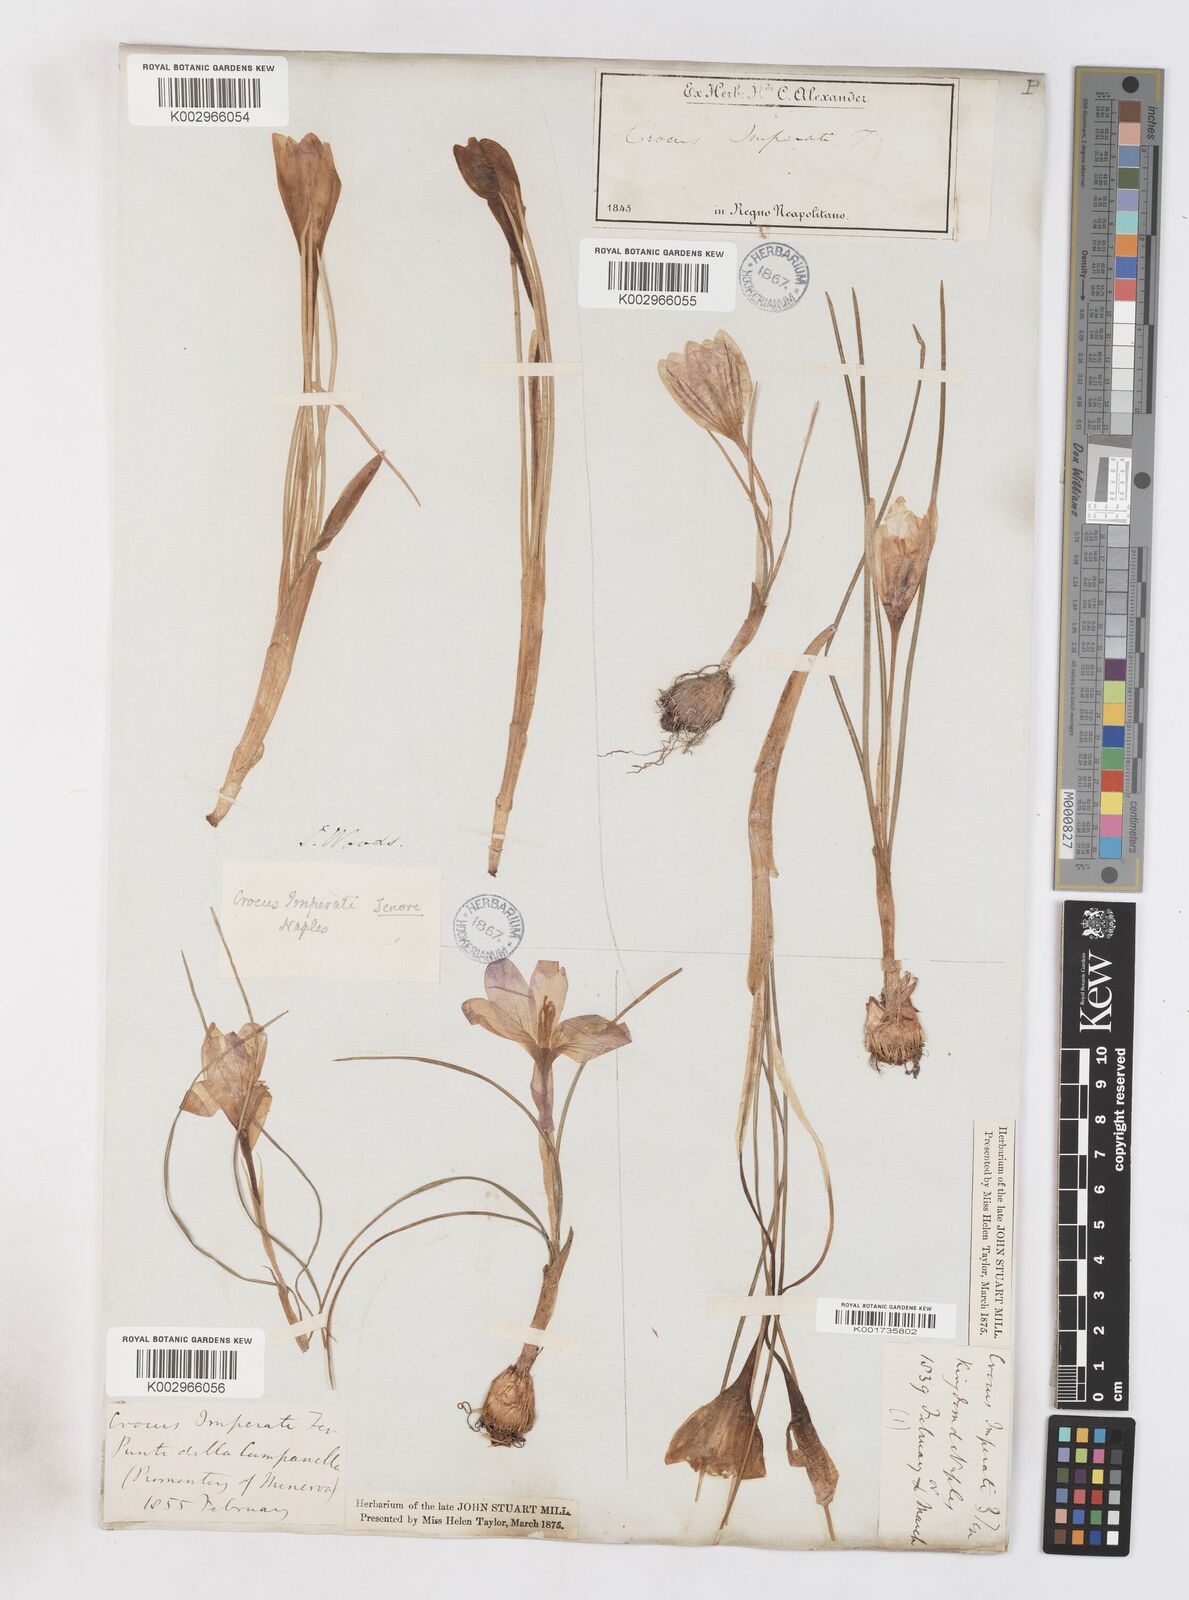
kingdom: Plantae
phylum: Tracheophyta
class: Liliopsida
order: Asparagales
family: Iridaceae
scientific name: Iridaceae
